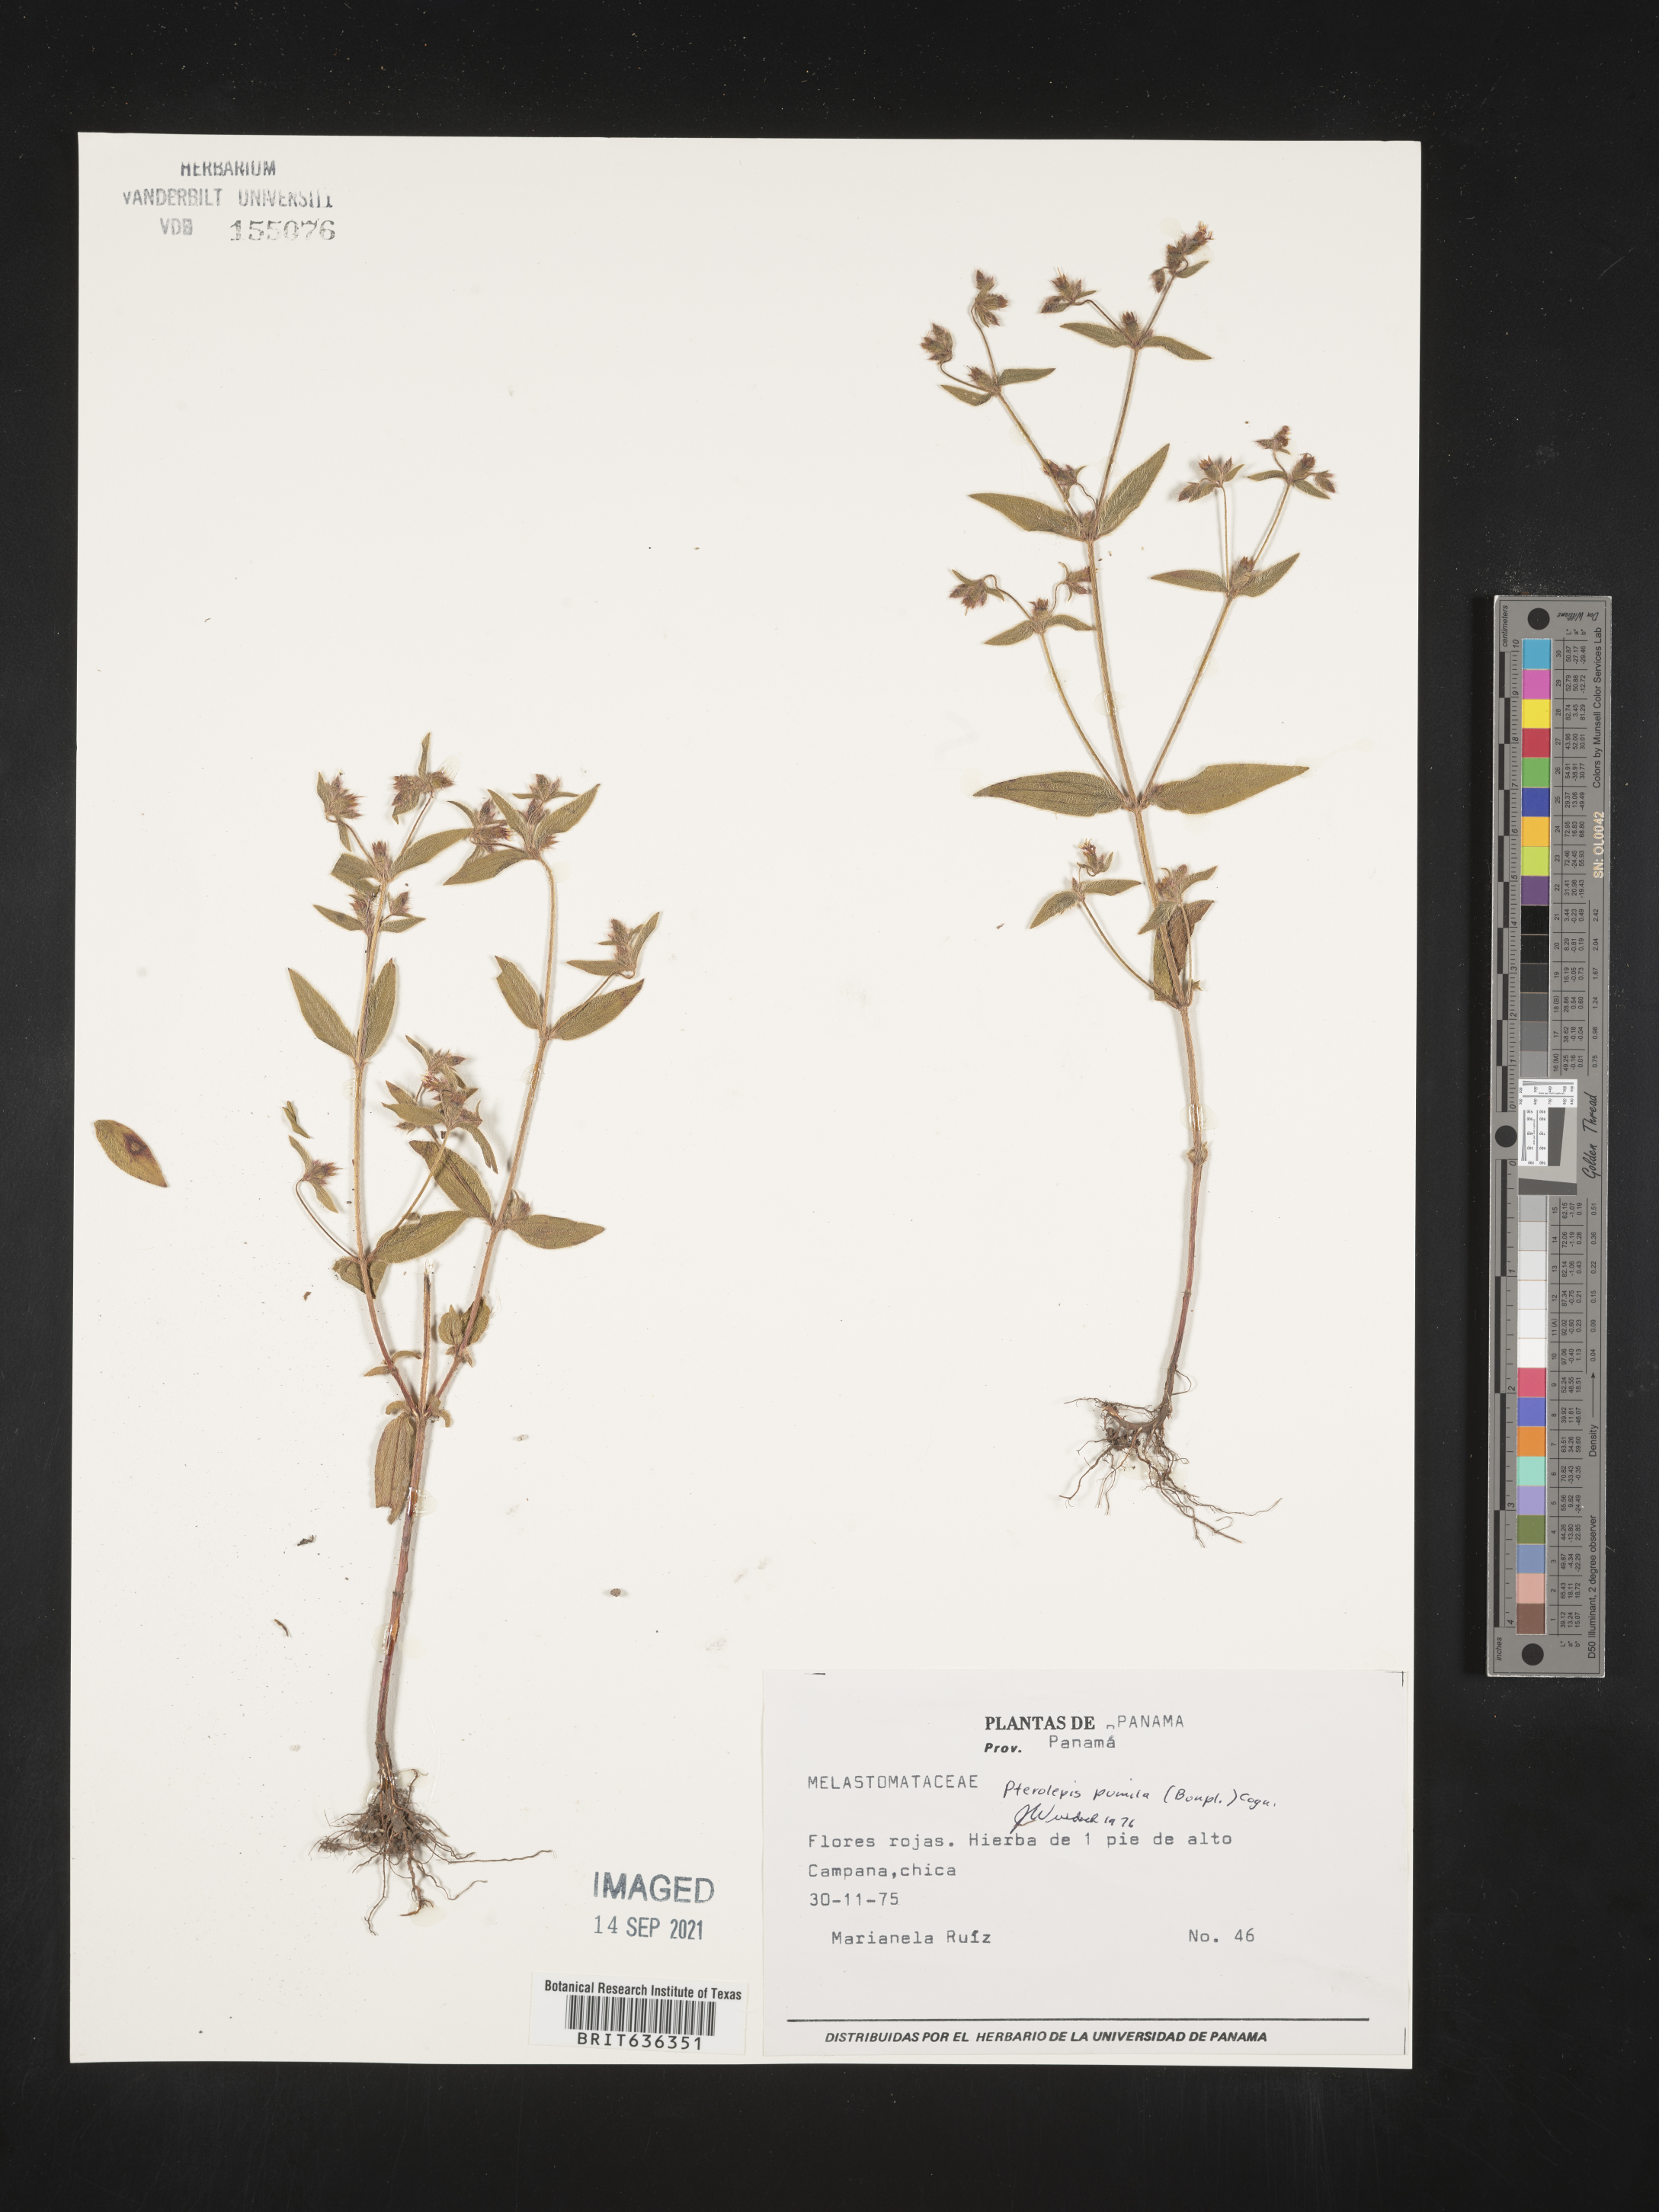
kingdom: Plantae
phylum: Tracheophyta
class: Magnoliopsida
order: Myrtales
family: Melastomataceae
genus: Pterolepis
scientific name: Pterolepis
